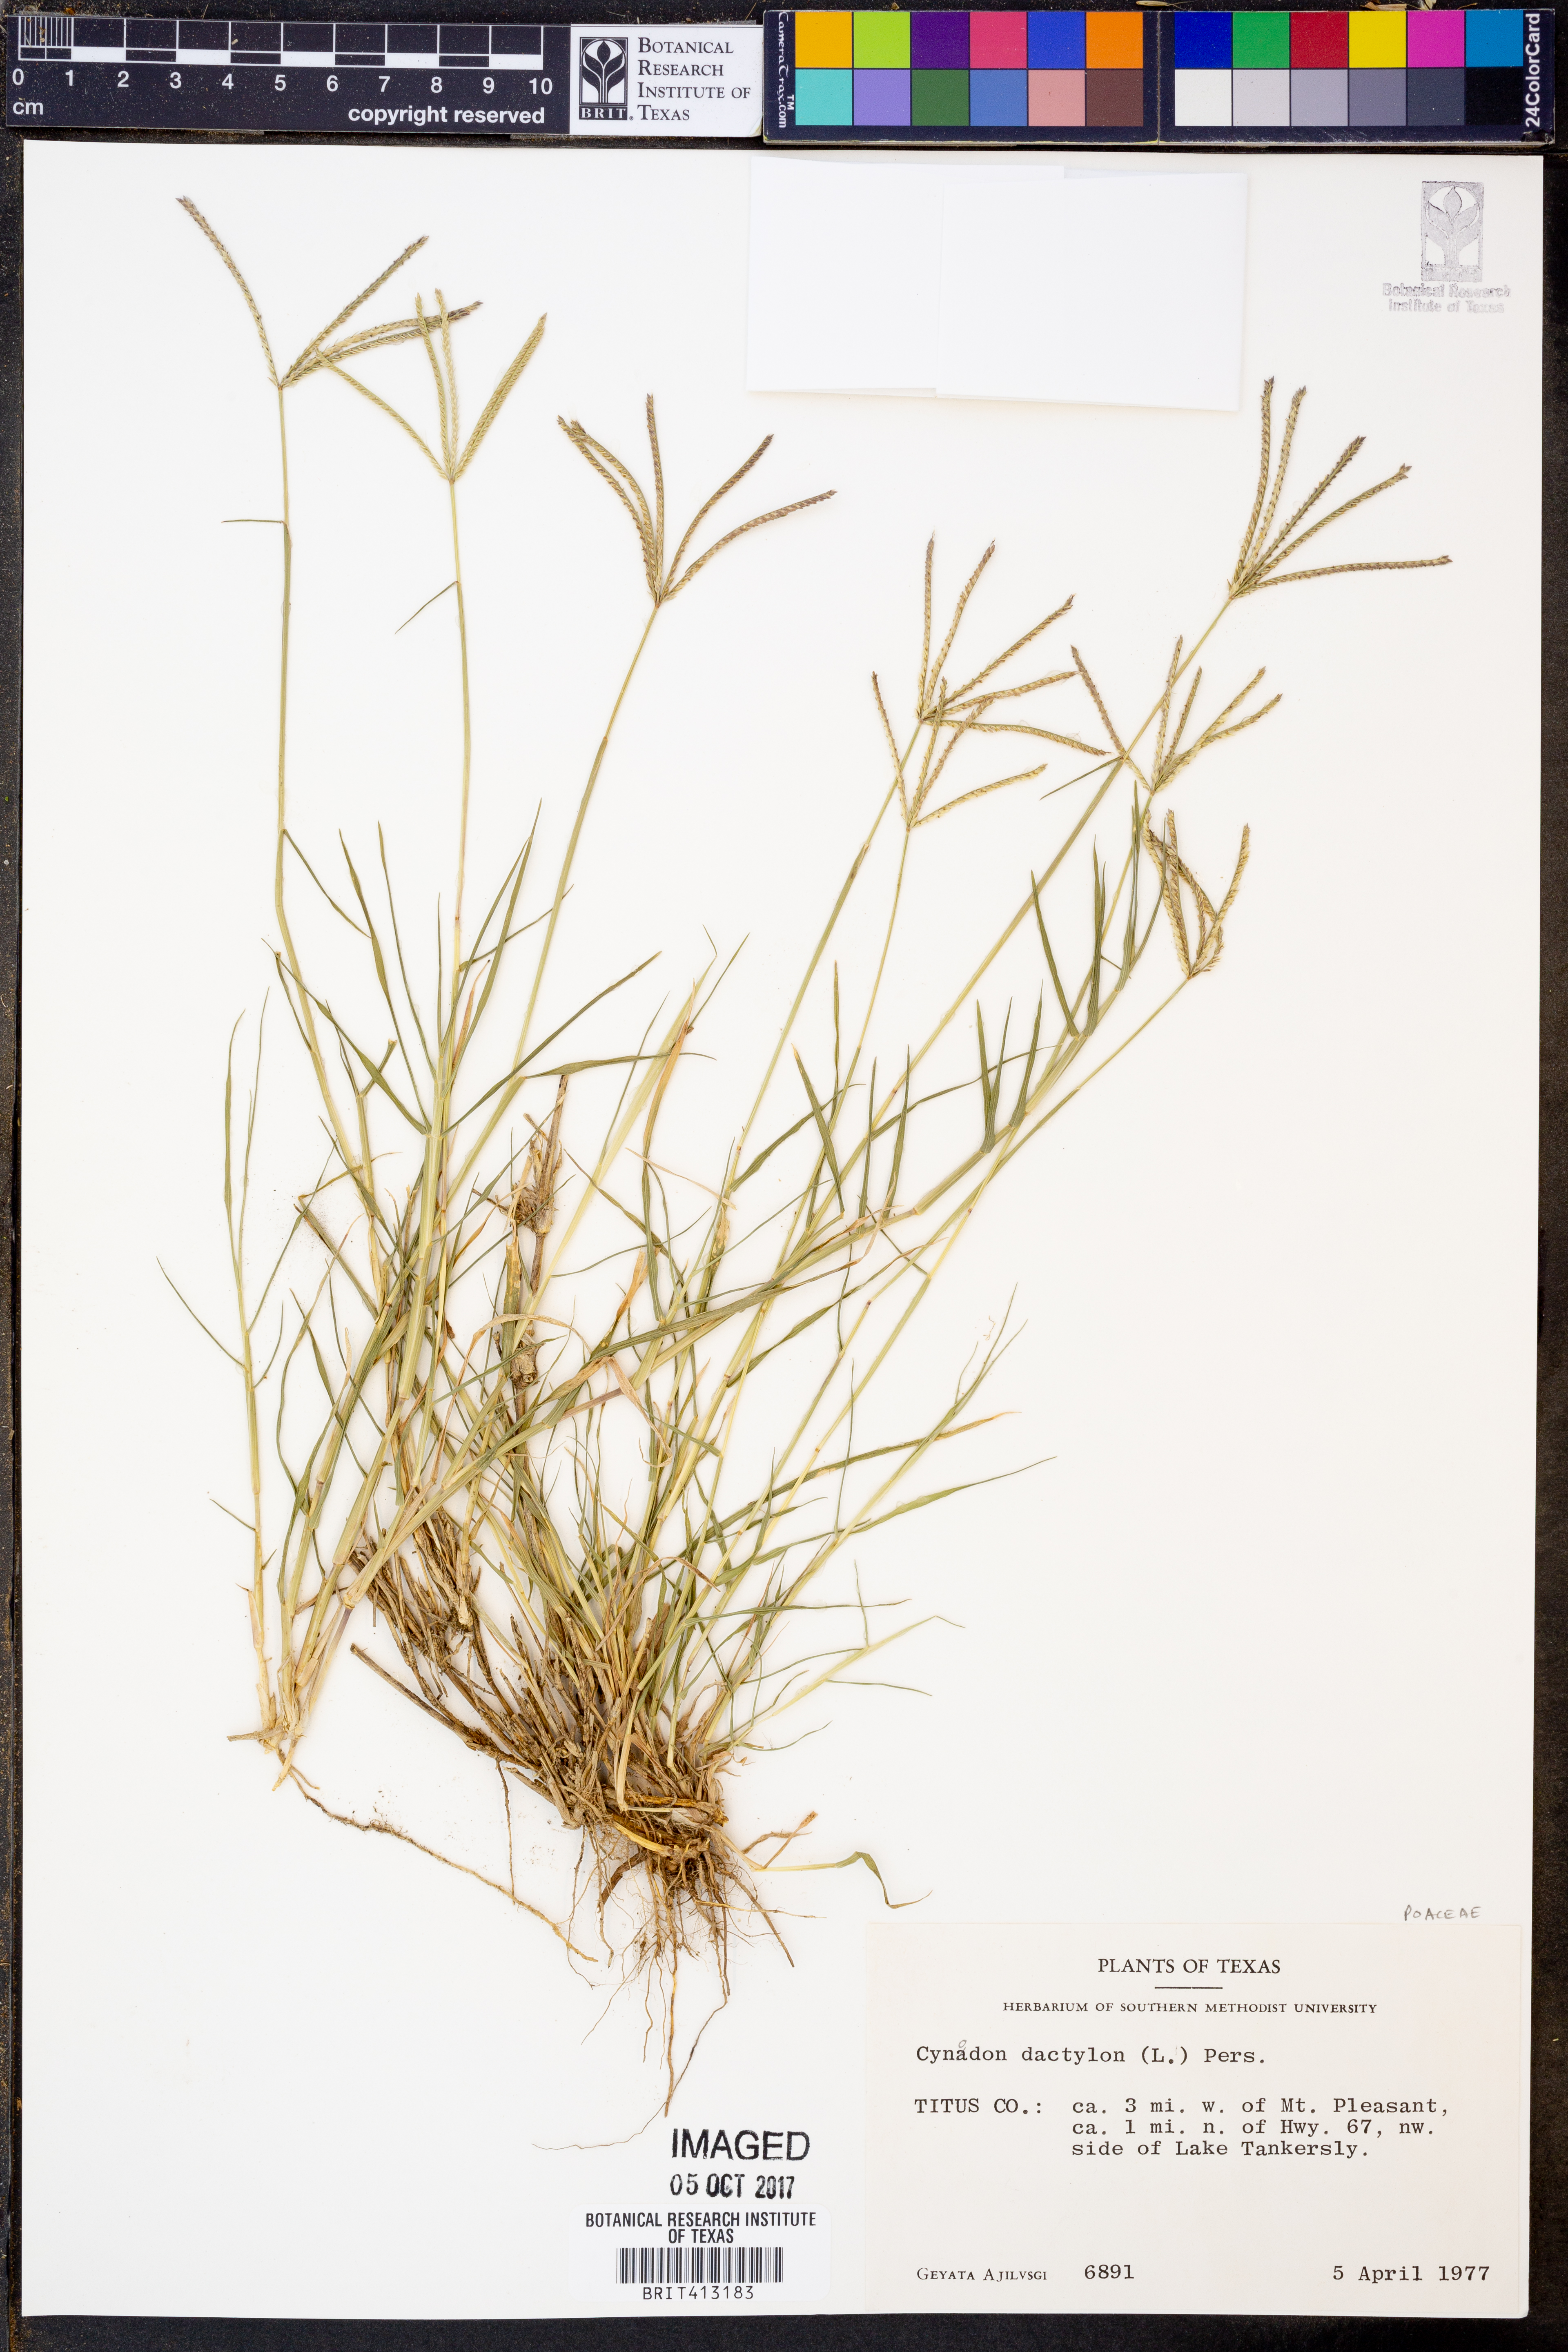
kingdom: Plantae
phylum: Tracheophyta
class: Liliopsida
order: Poales
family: Poaceae
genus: Cynodon
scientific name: Cynodon dactylon
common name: Bermuda grass
